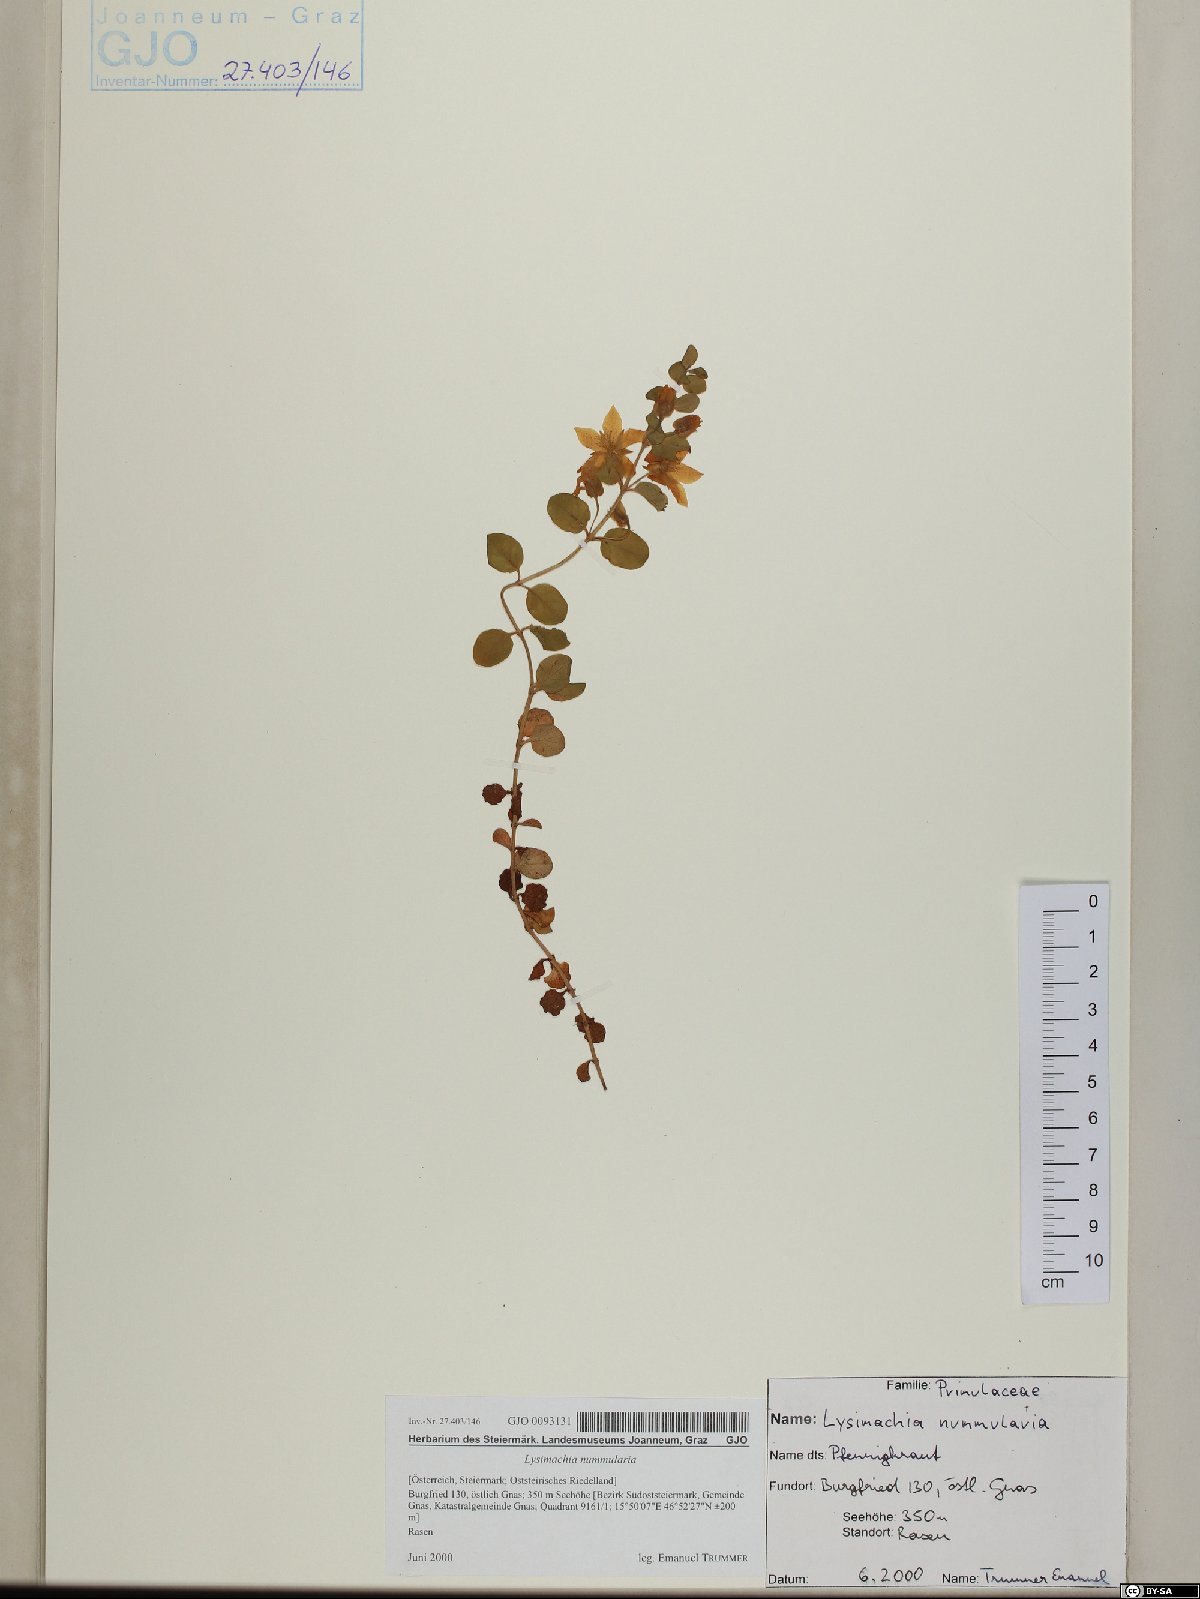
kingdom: Plantae
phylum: Tracheophyta
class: Magnoliopsida
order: Ericales
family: Primulaceae
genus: Lysimachia
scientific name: Lysimachia nummularia
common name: Moneywort
